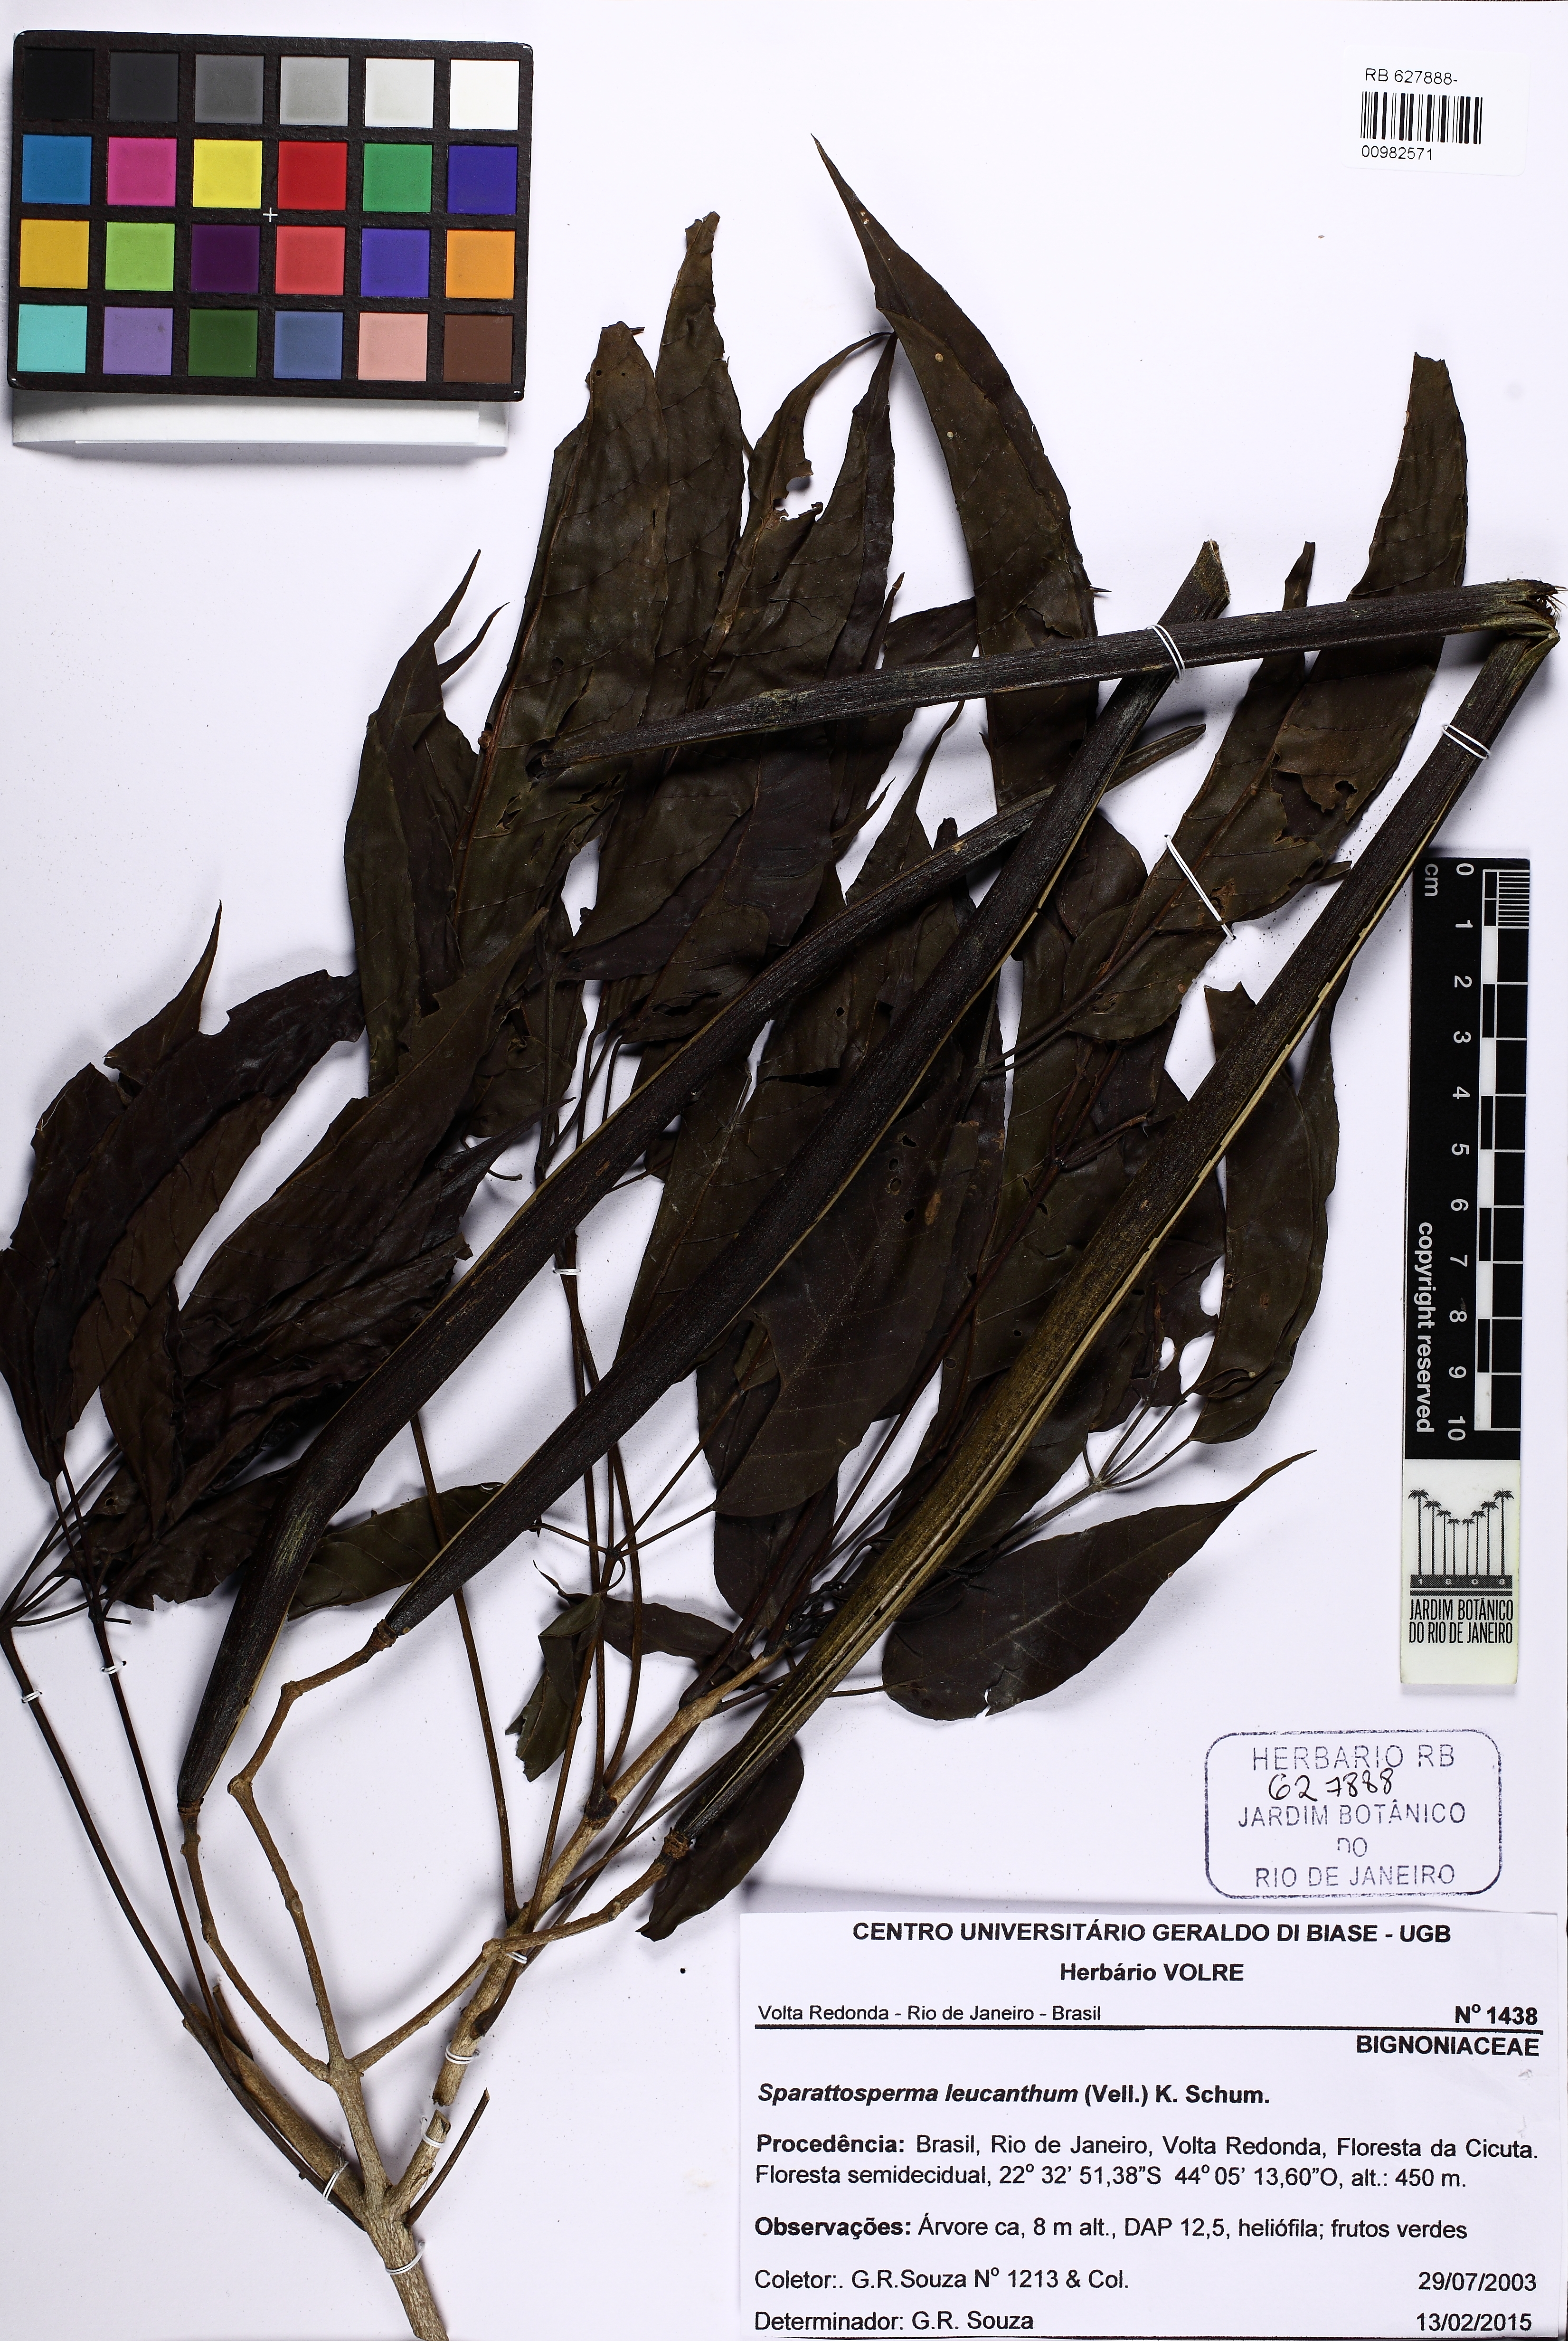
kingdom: Plantae
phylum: Tracheophyta
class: Magnoliopsida
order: Lamiales
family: Bignoniaceae
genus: Sparattosperma
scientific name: Sparattosperma leucanthum
